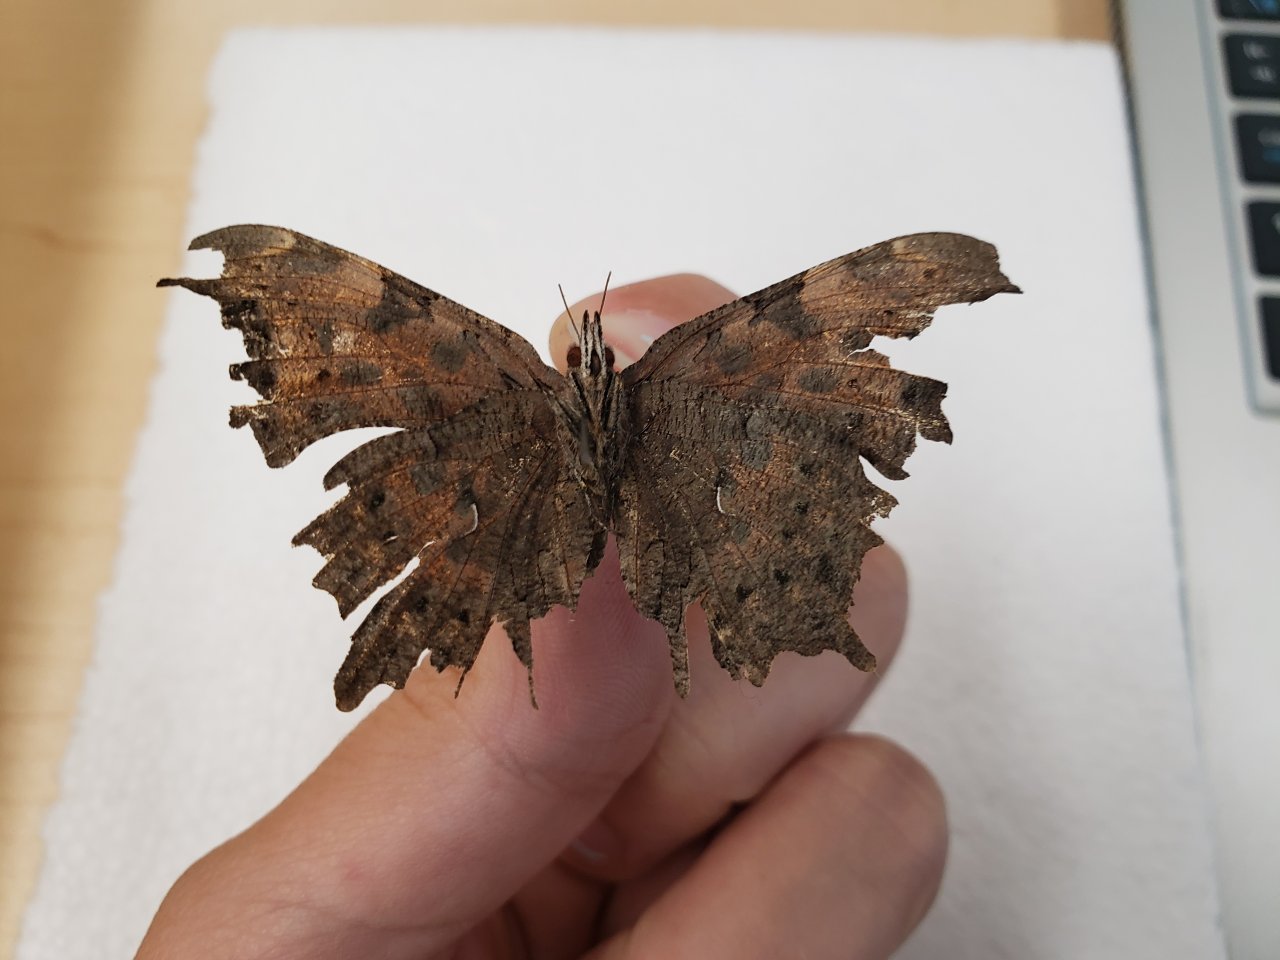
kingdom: Animalia
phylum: Arthropoda
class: Insecta
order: Lepidoptera
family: Nymphalidae
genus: Polygonia
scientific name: Polygonia faunus
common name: Green Comma
